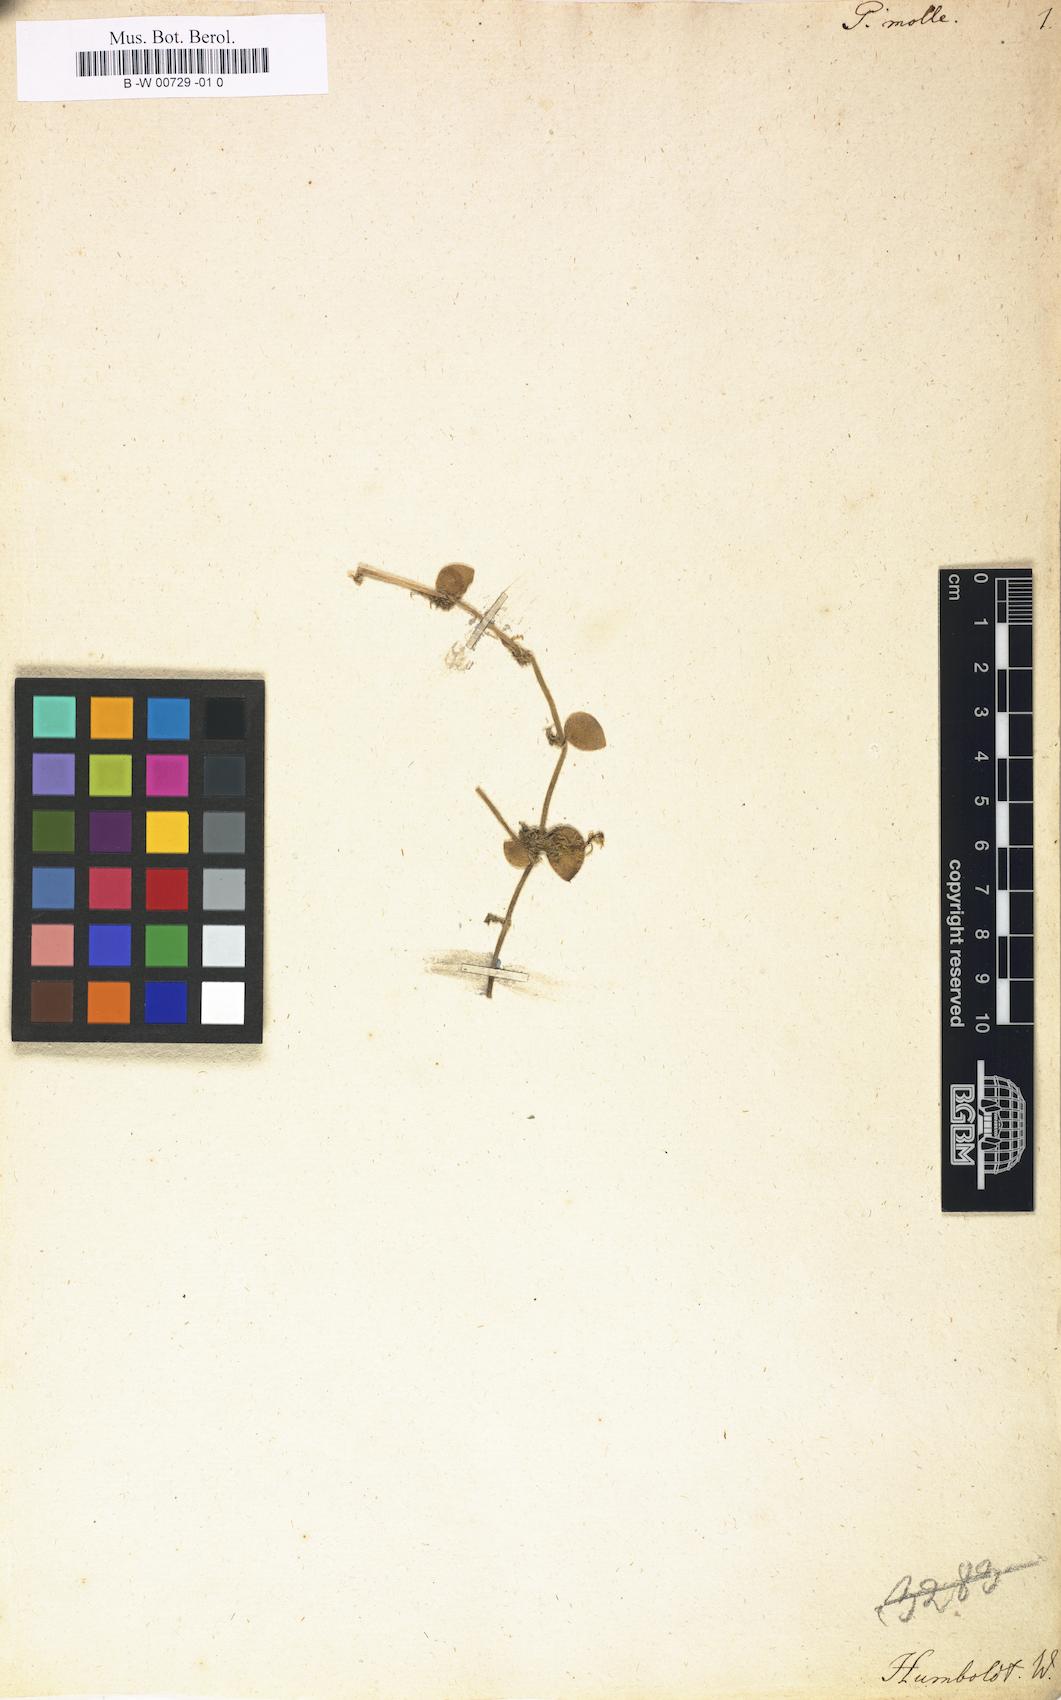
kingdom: Plantae
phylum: Tracheophyta
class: Magnoliopsida
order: Piperales
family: Piperaceae
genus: Peperomia
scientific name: Peperomia mollis
